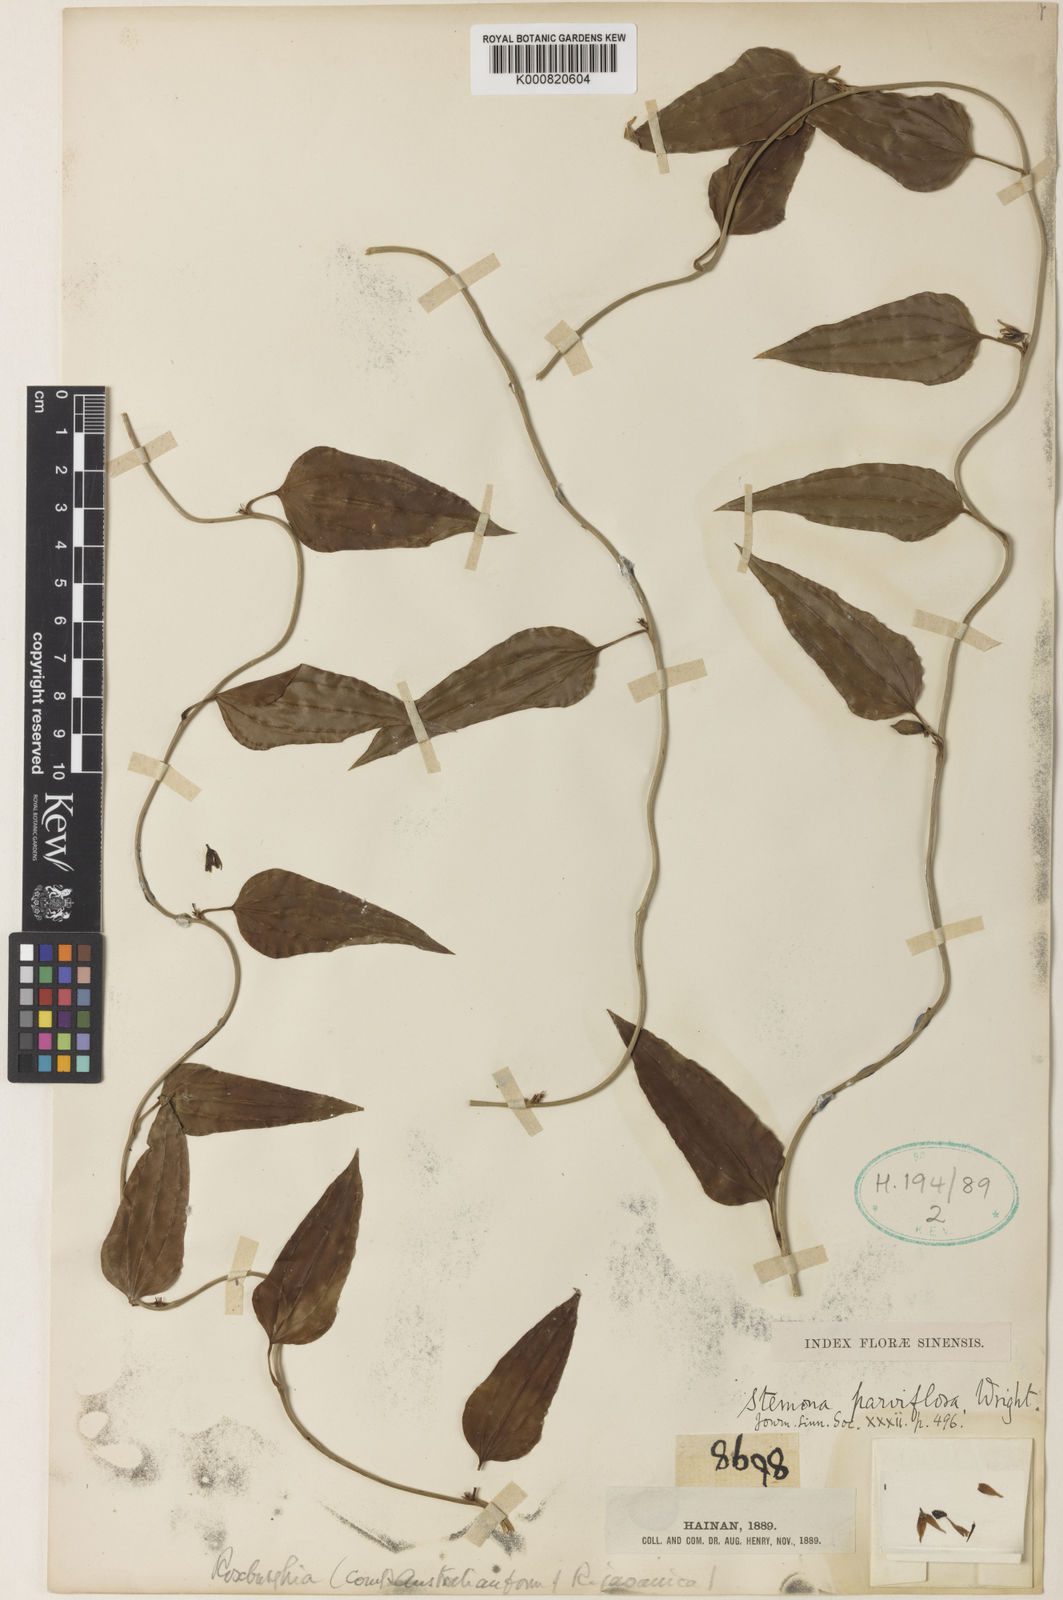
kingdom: Plantae
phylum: Tracheophyta
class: Liliopsida
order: Pandanales
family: Stemonaceae
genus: Stemona
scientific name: Stemona parviflora
